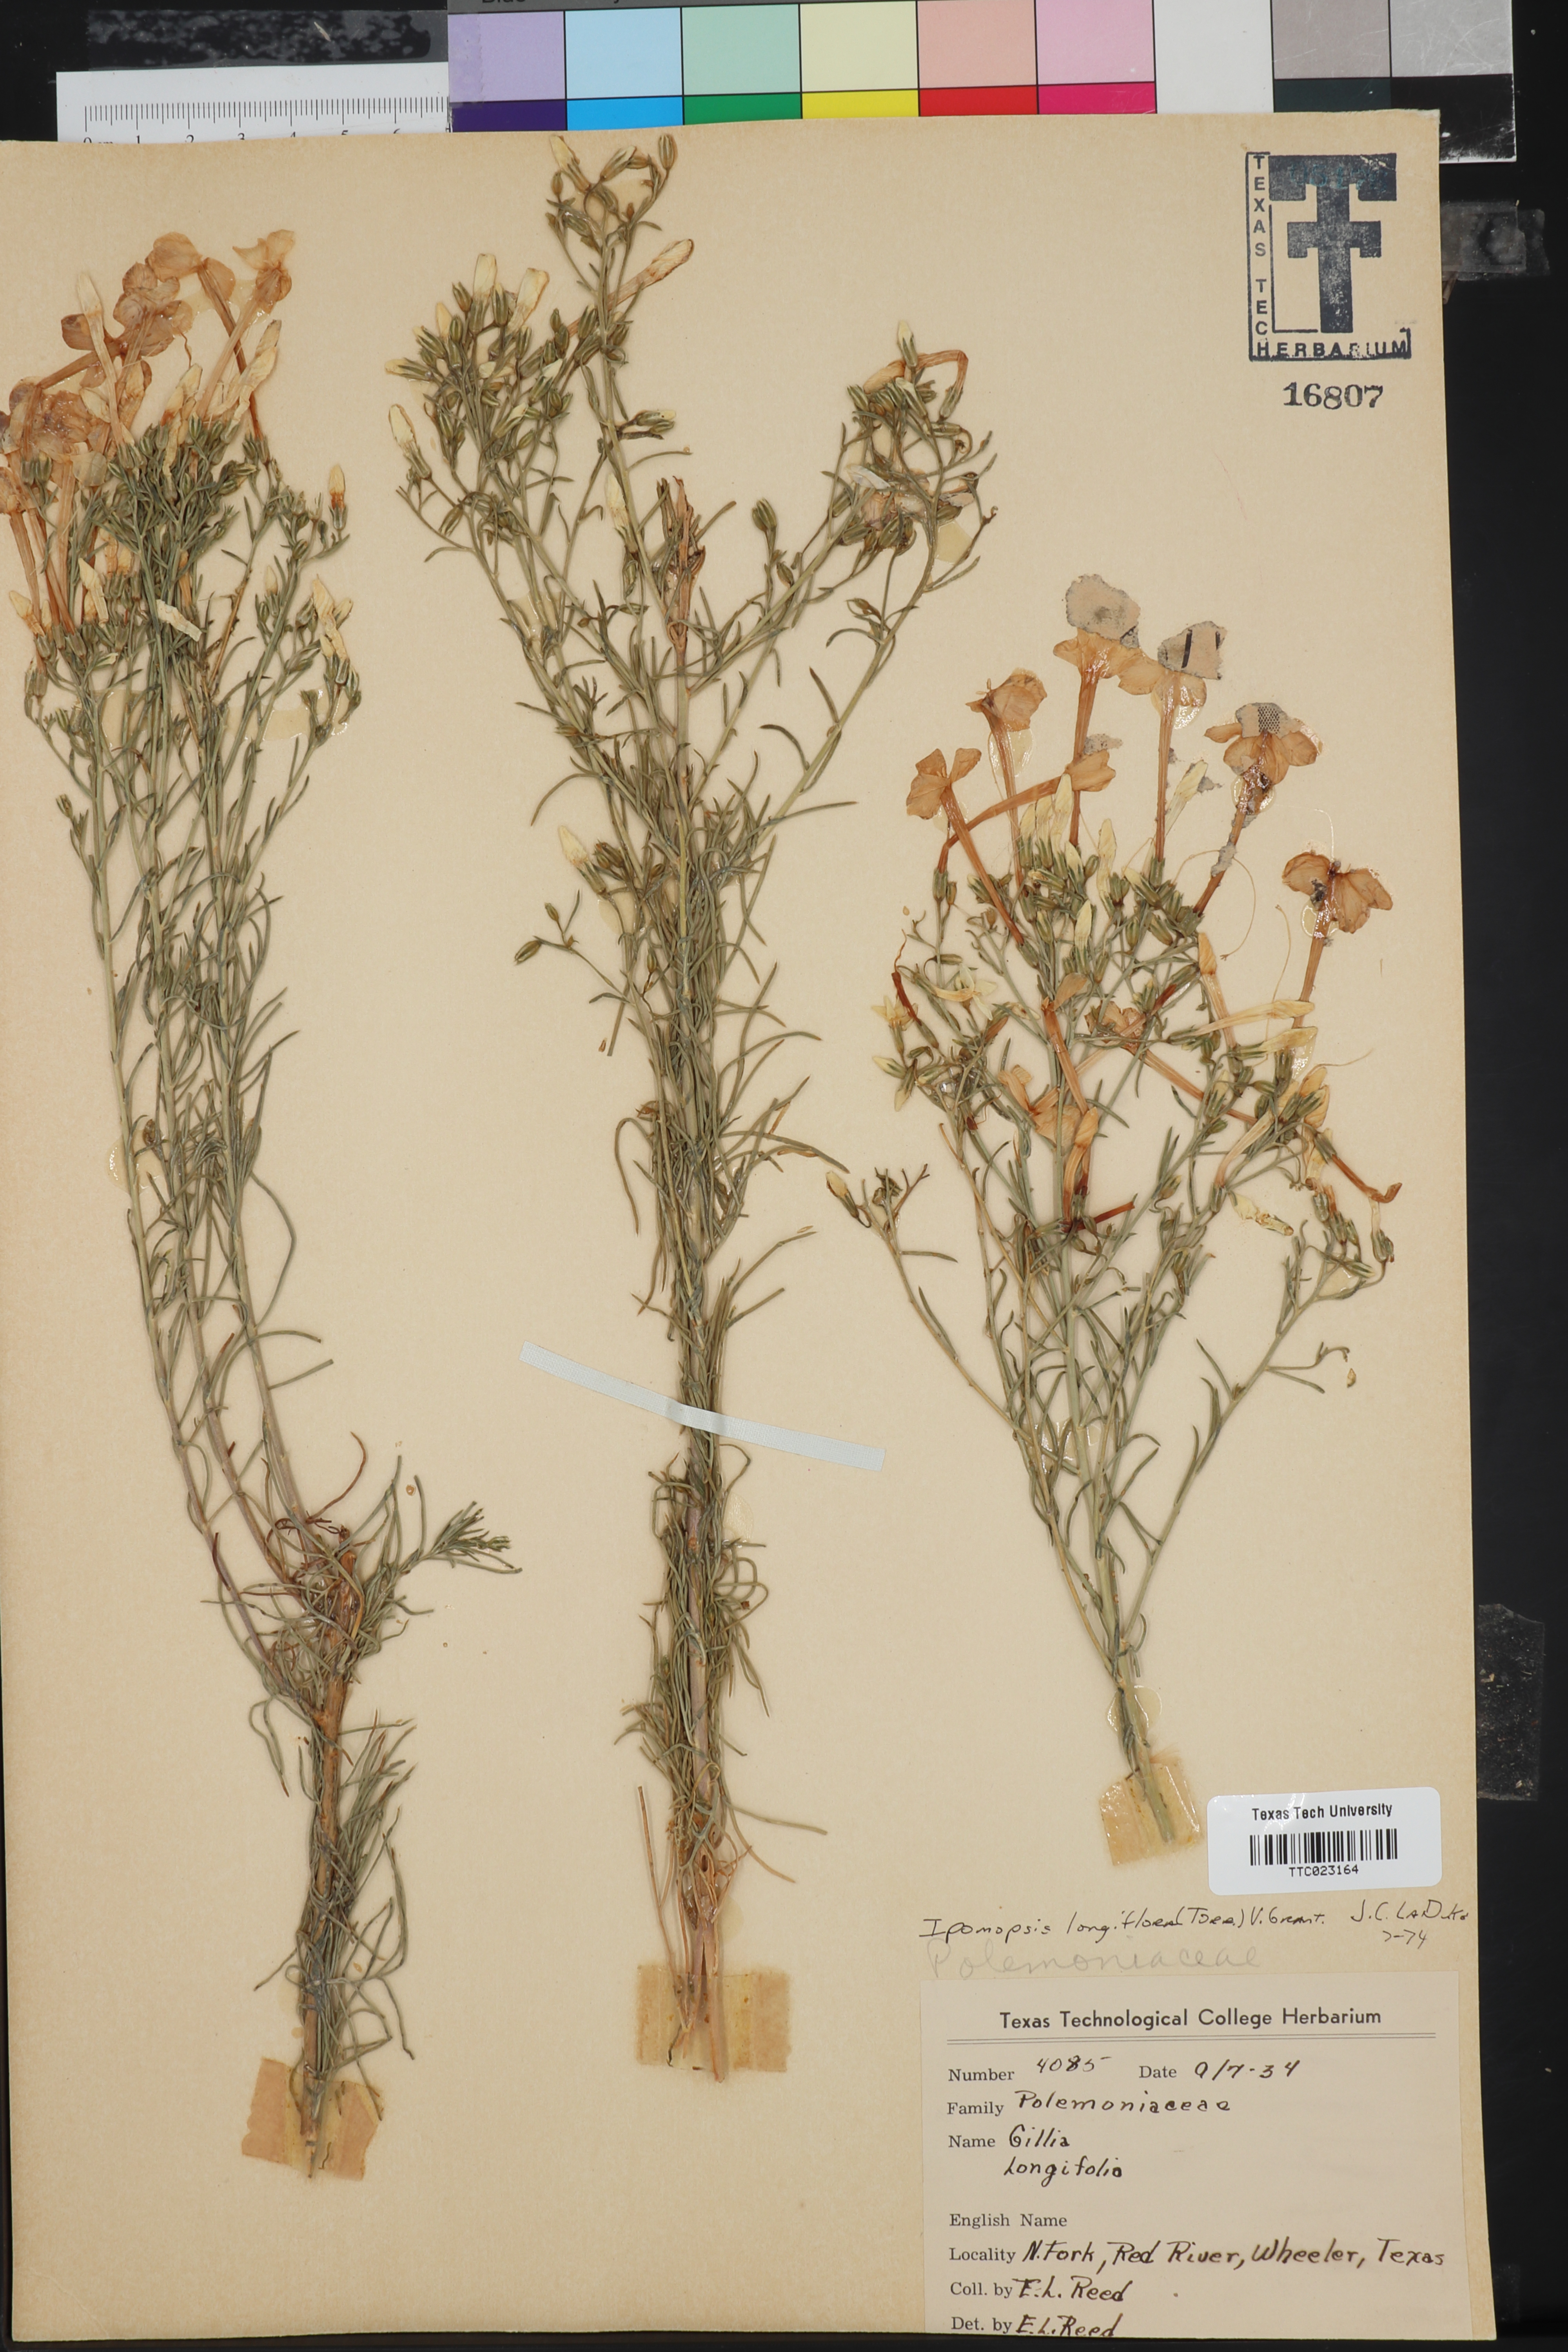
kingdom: Plantae
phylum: Tracheophyta
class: Magnoliopsida
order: Ericales
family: Polemoniaceae
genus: Ipomopsis
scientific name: Ipomopsis longiflora
